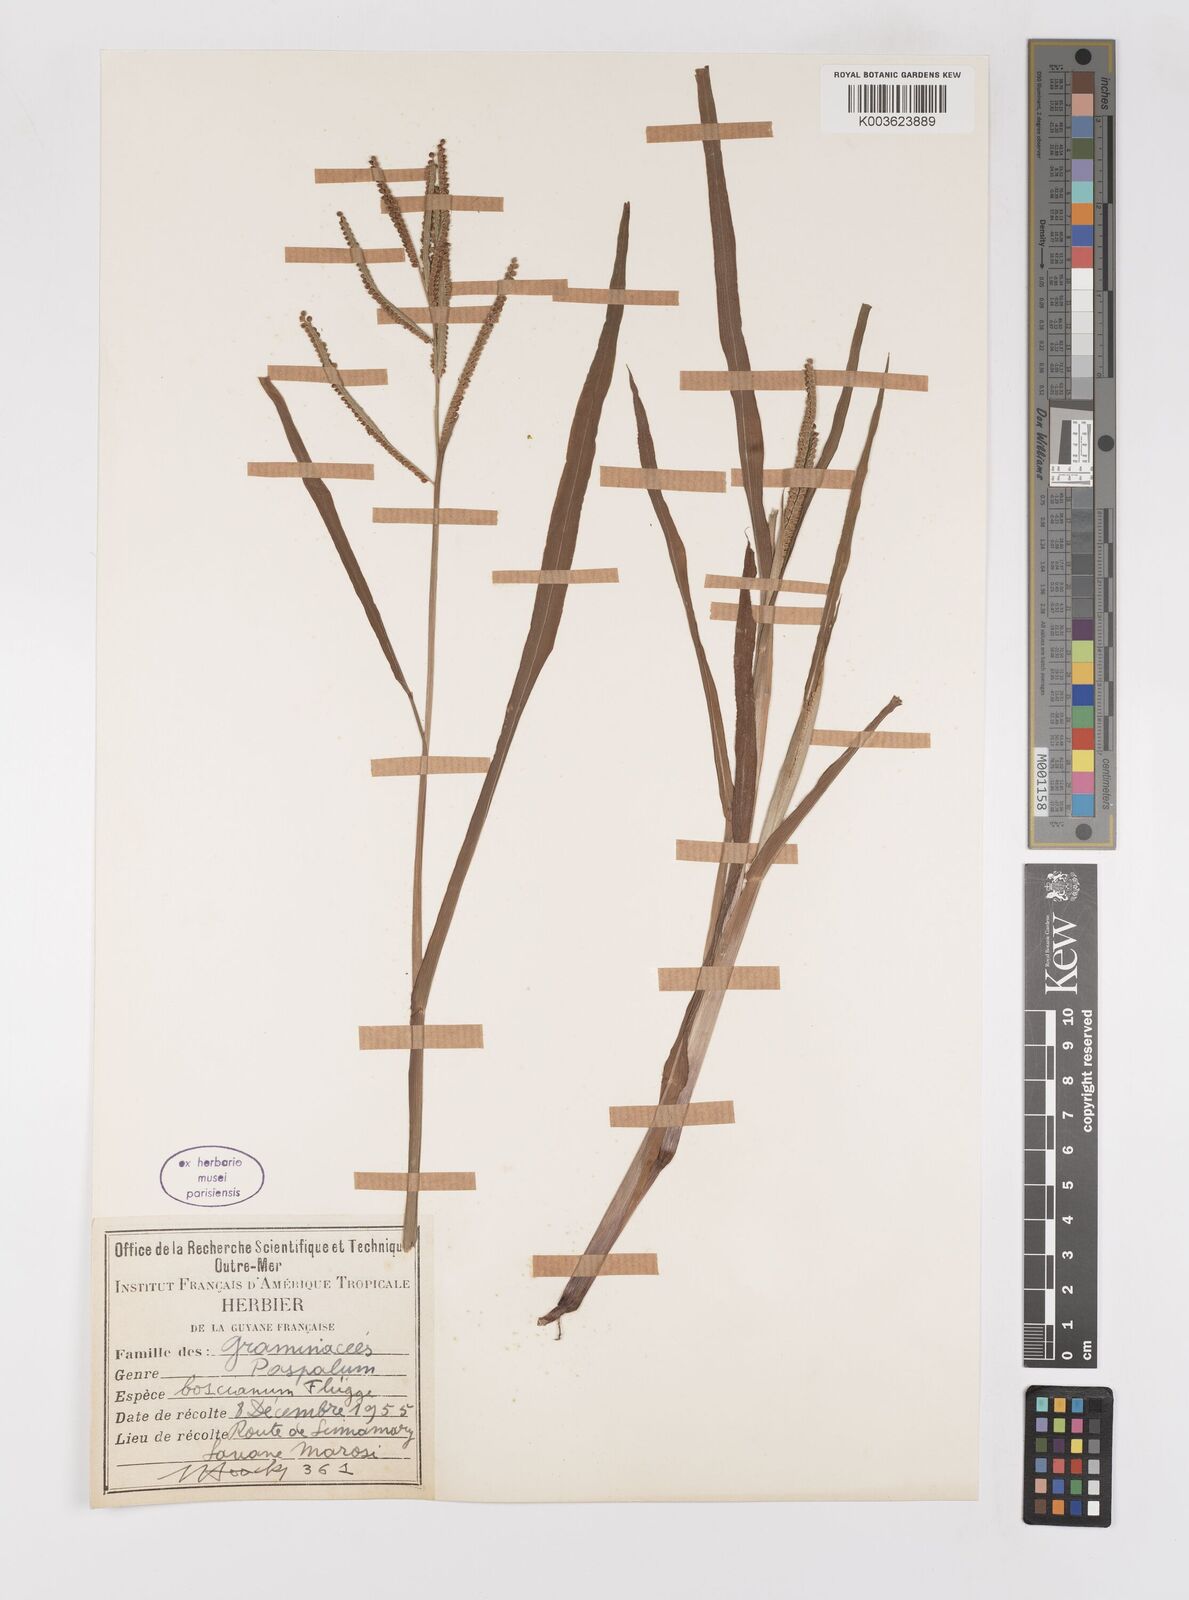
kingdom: Plantae
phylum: Tracheophyta
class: Liliopsida
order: Poales
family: Poaceae
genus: Paspalum
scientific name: Paspalum scrobiculatum
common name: Kodo millet
